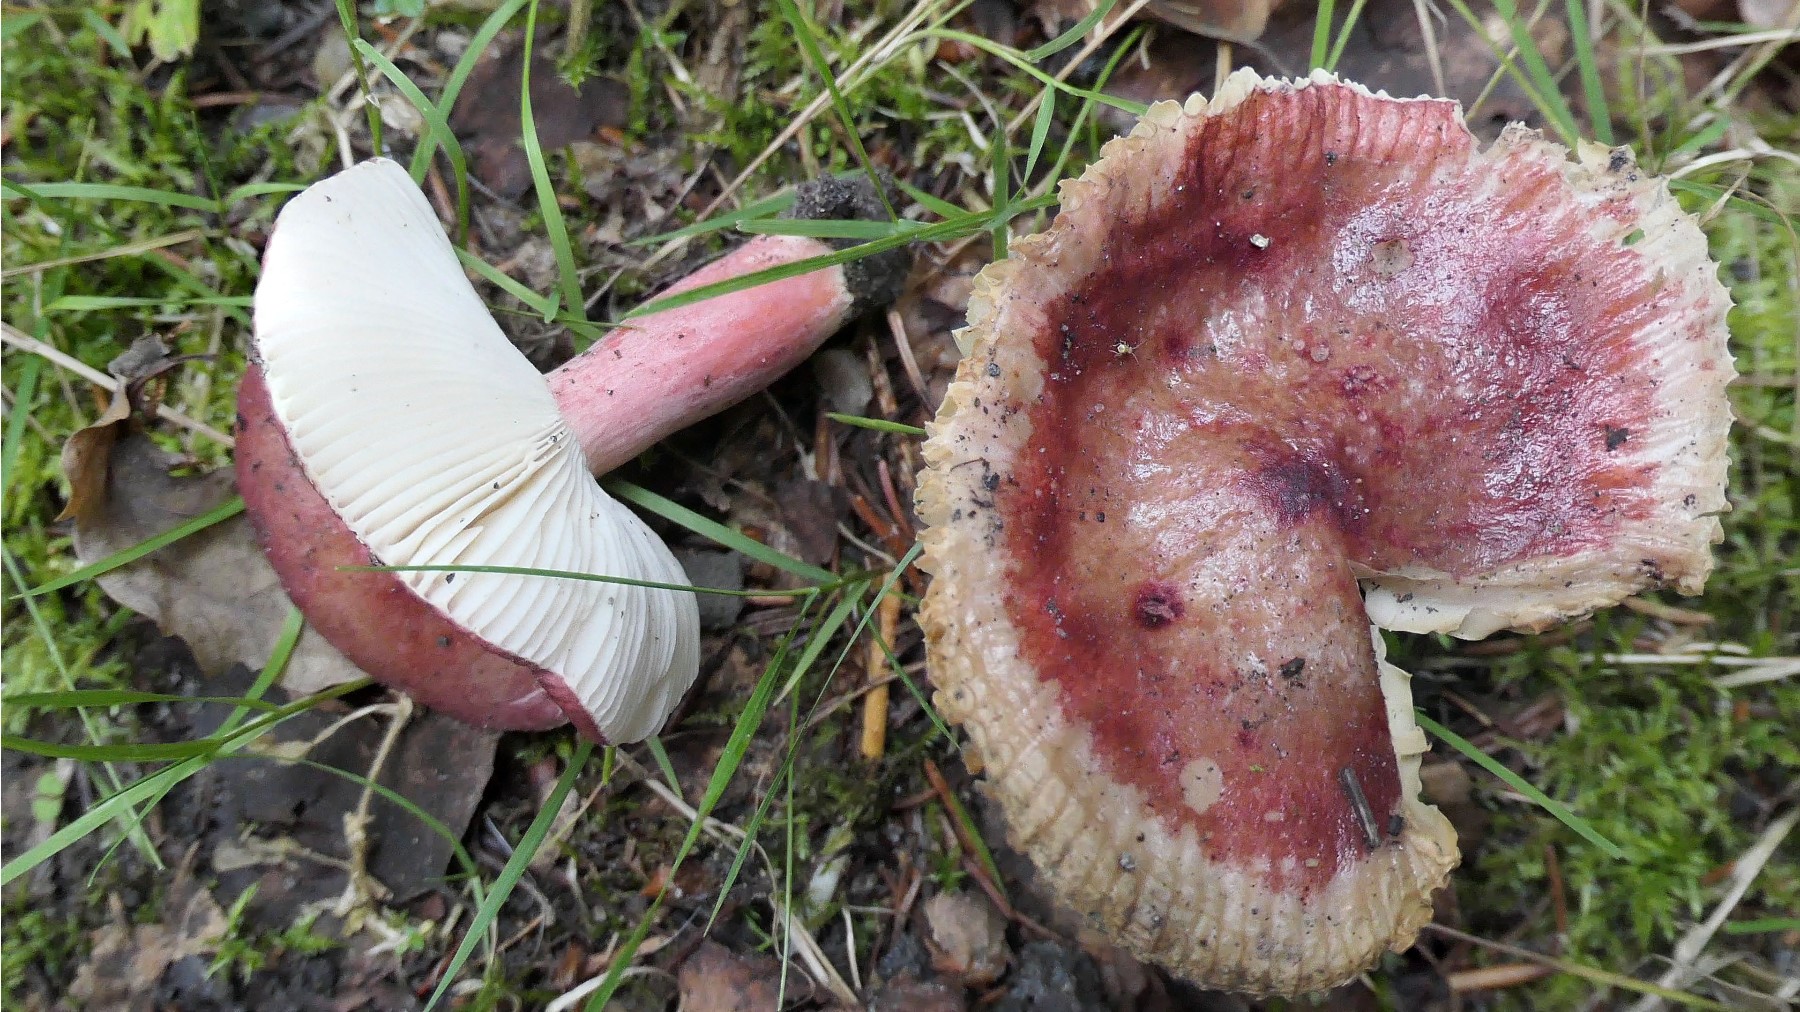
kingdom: Fungi
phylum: Basidiomycota
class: Agaricomycetes
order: Russulales
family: Russulaceae
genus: Russula
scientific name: Russula queletii
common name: Quélets skørhat
